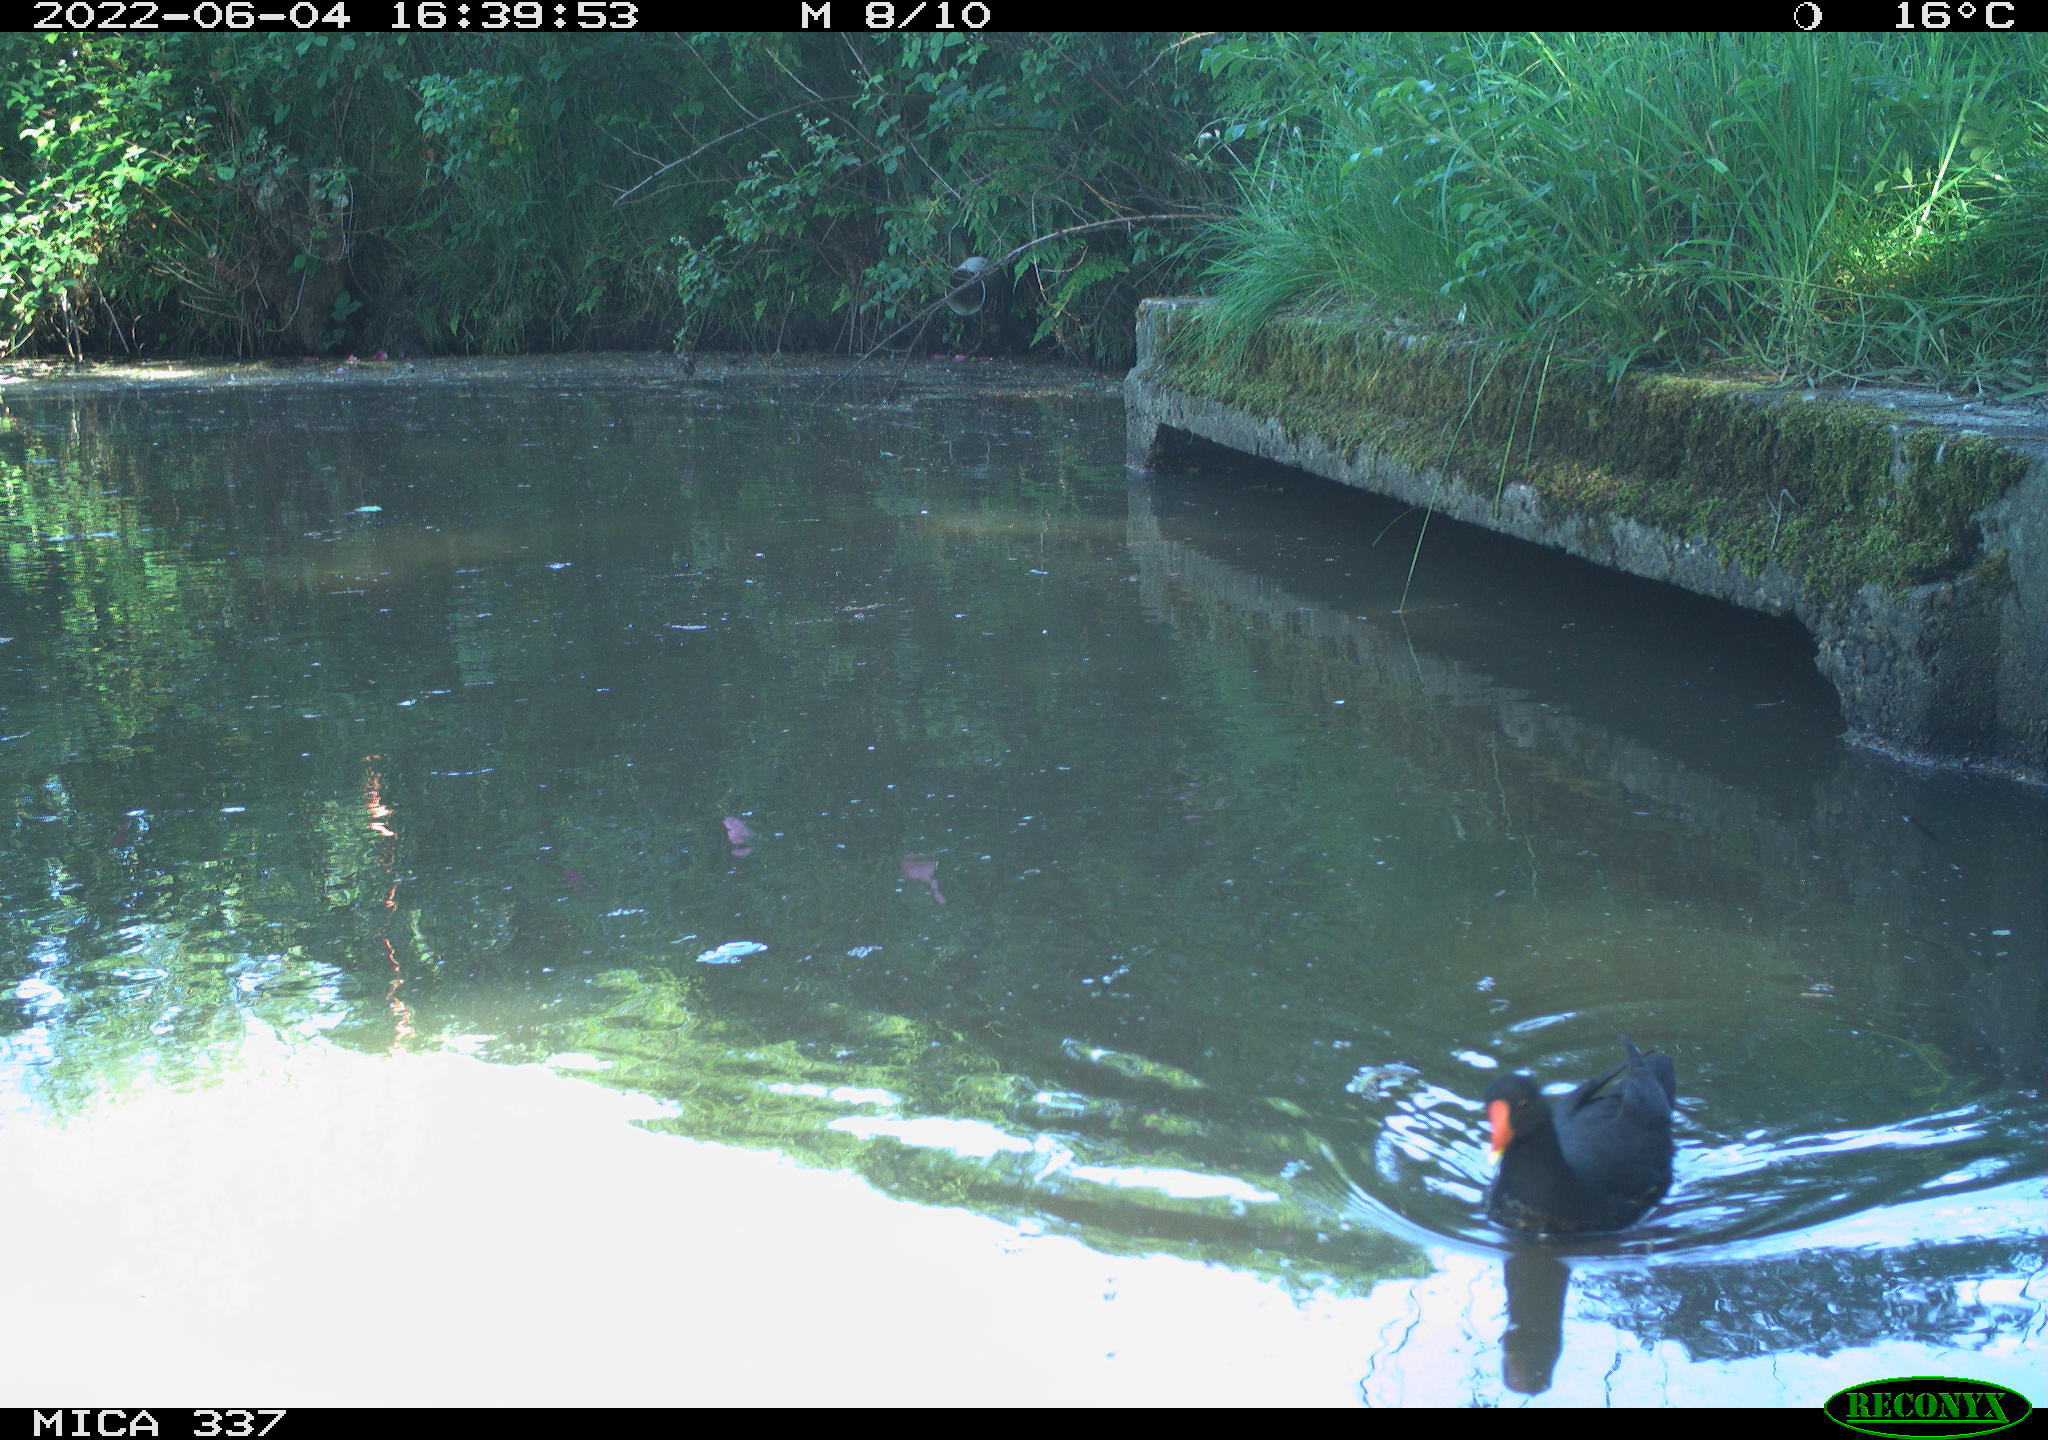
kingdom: Animalia
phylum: Chordata
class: Aves
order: Gruiformes
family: Rallidae
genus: Gallinula
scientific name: Gallinula chloropus
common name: Common moorhen
